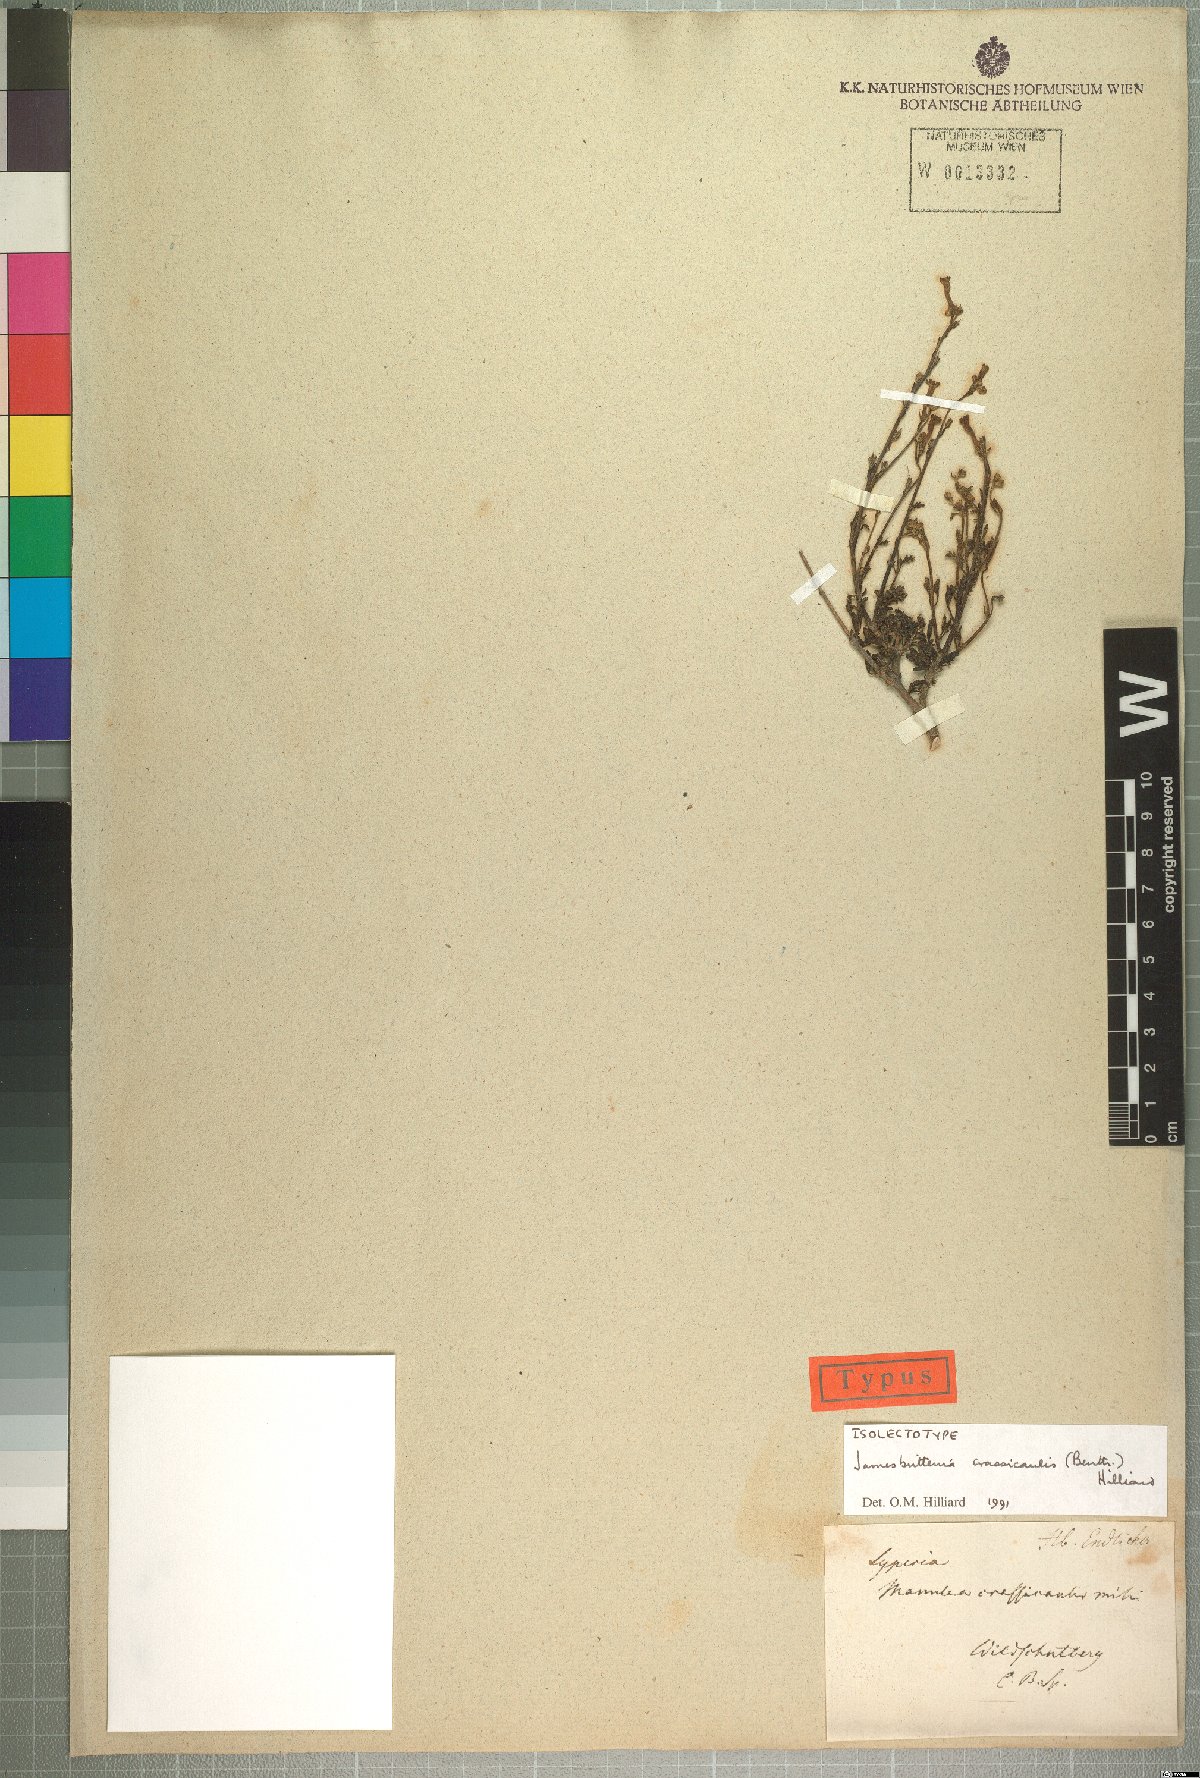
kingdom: Plantae
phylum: Tracheophyta
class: Magnoliopsida
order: Lamiales
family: Scrophulariaceae
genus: Jamesbrittenia
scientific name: Jamesbrittenia crassicaulis
